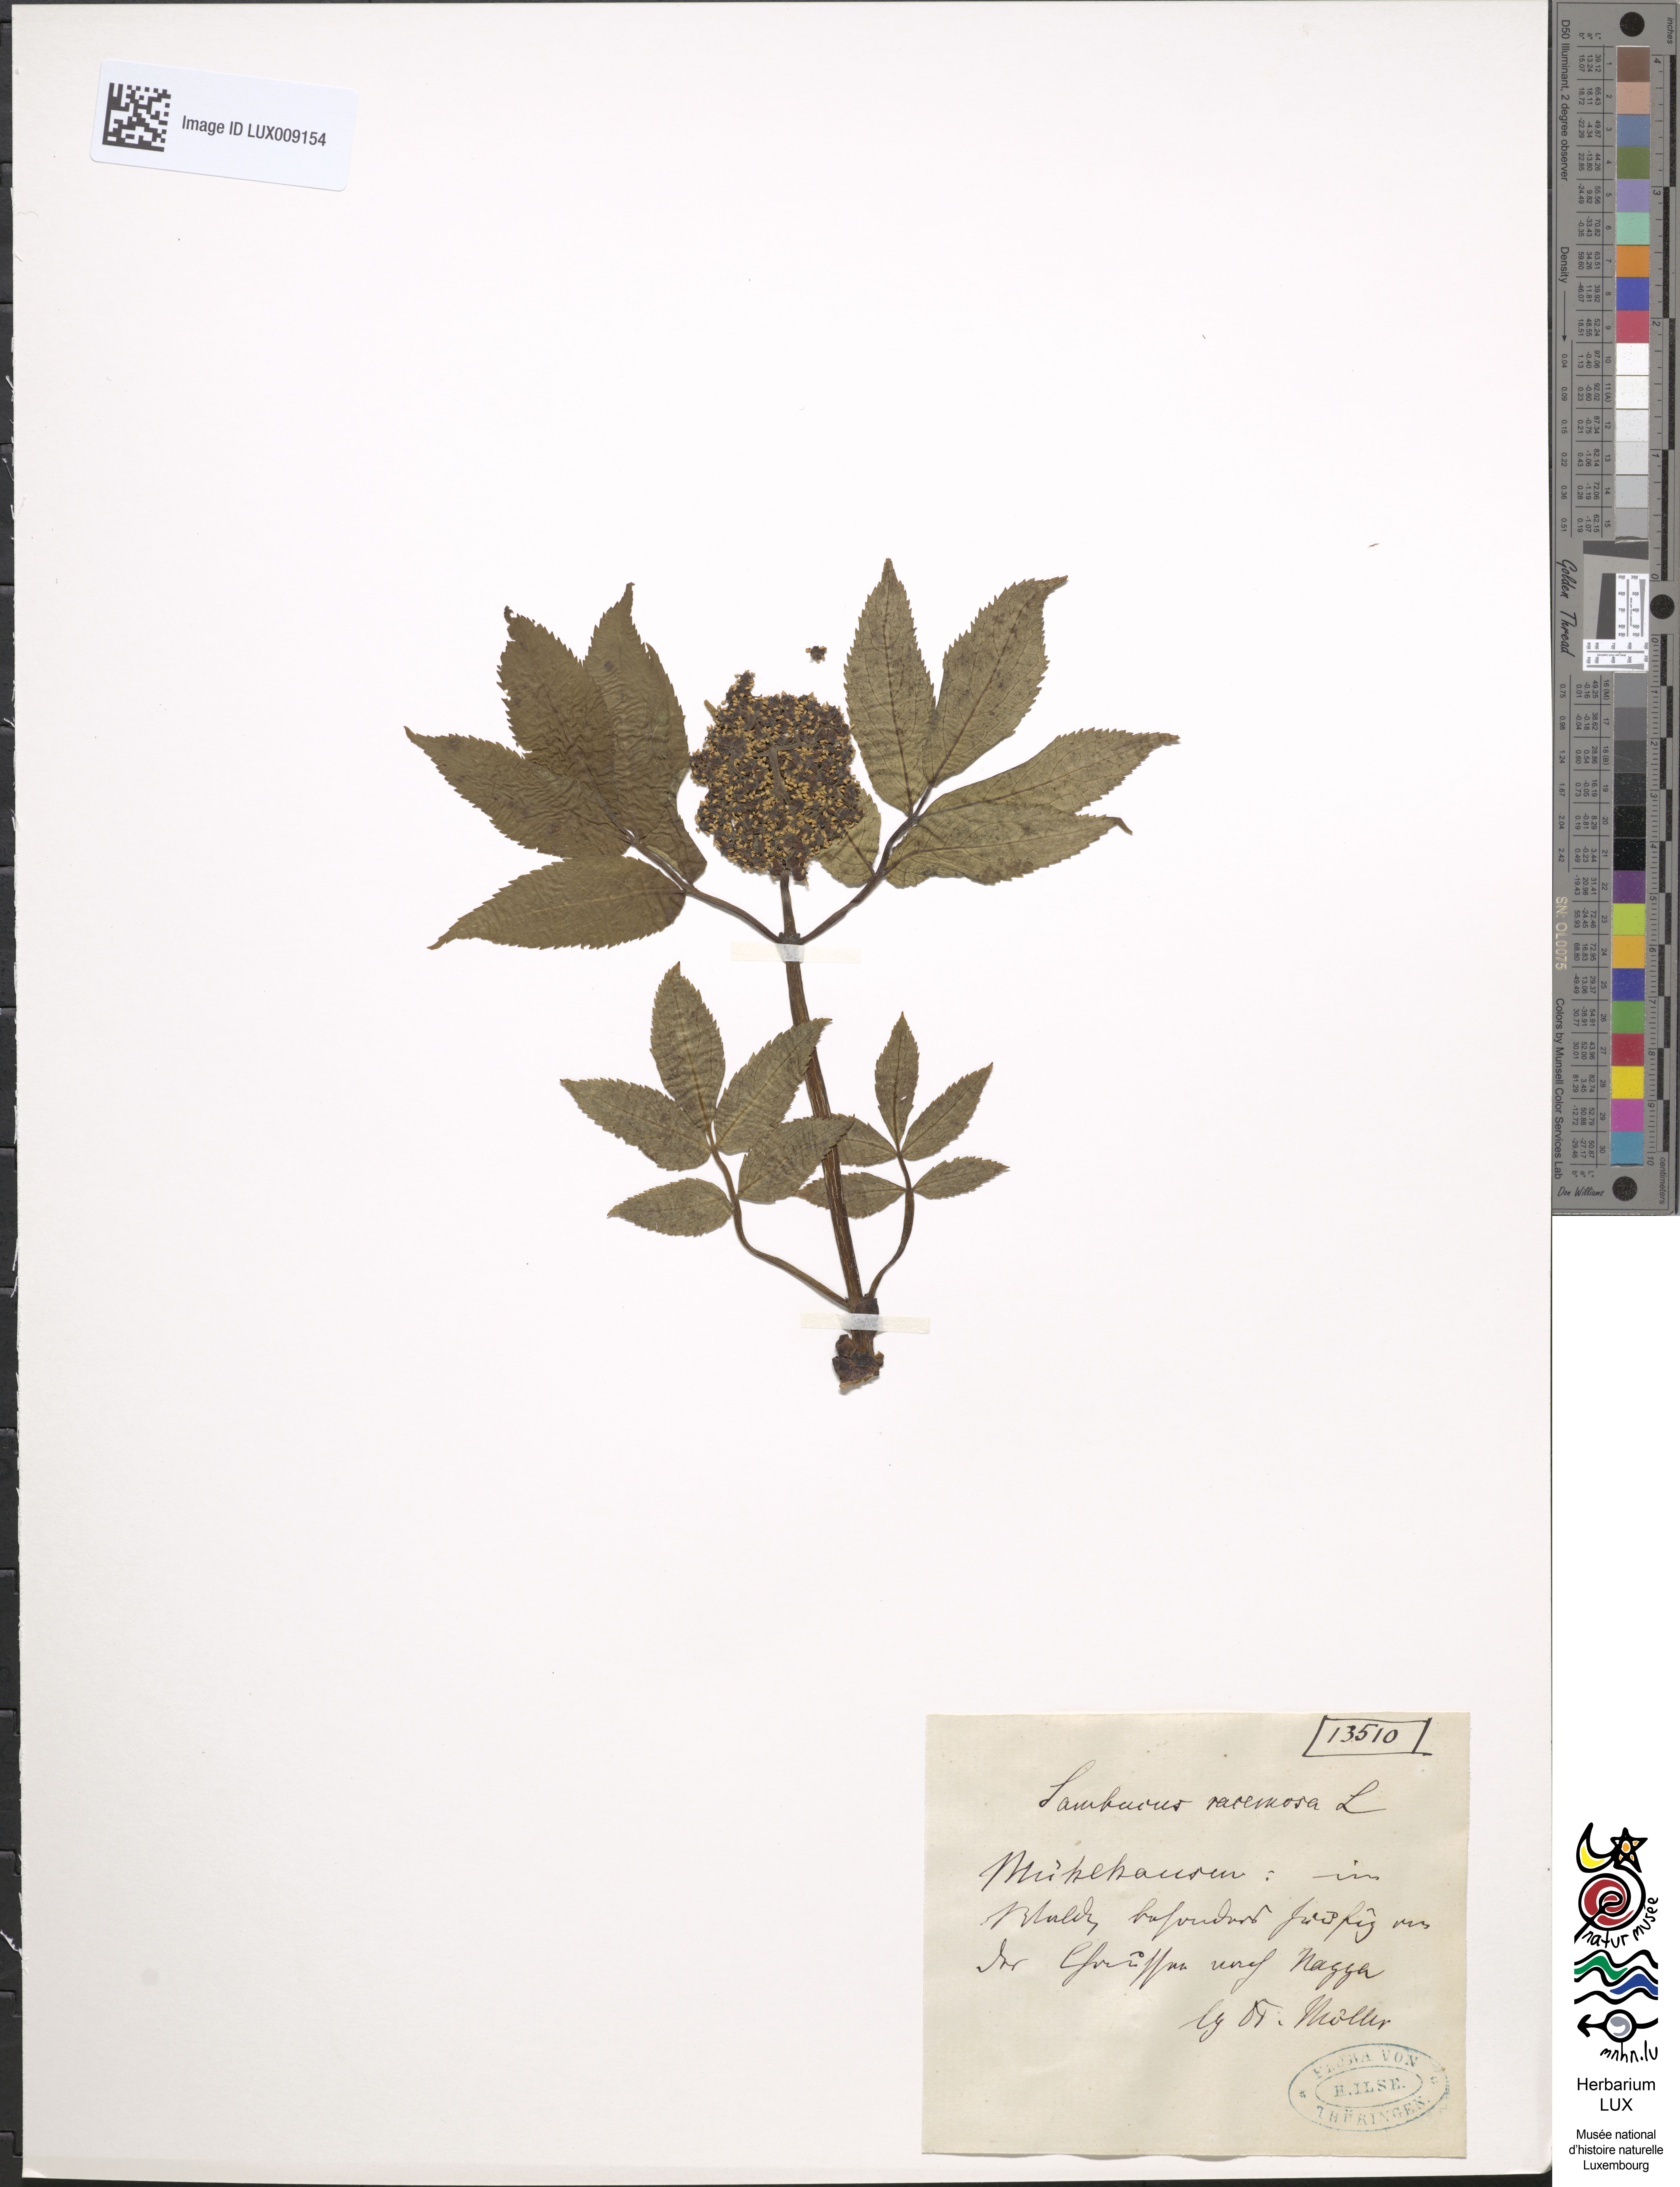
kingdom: Plantae
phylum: Tracheophyta
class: Magnoliopsida
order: Dipsacales
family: Viburnaceae
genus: Sambucus
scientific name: Sambucus racemosa
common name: Red-berried elder
